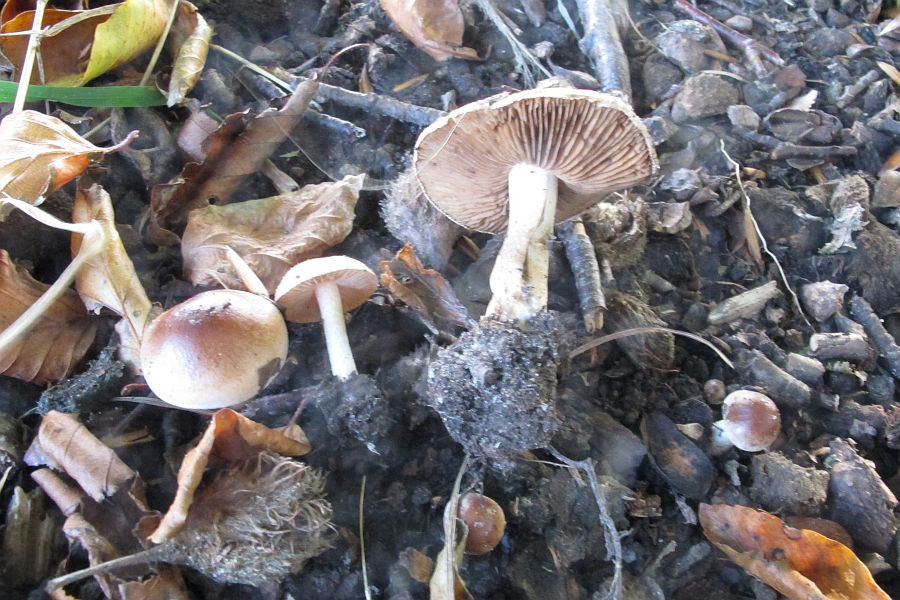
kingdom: Fungi
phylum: Basidiomycota
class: Agaricomycetes
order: Agaricales
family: Hymenogastraceae
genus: Hebeloma
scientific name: Hebeloma birrus
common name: rodslående tåreblad
